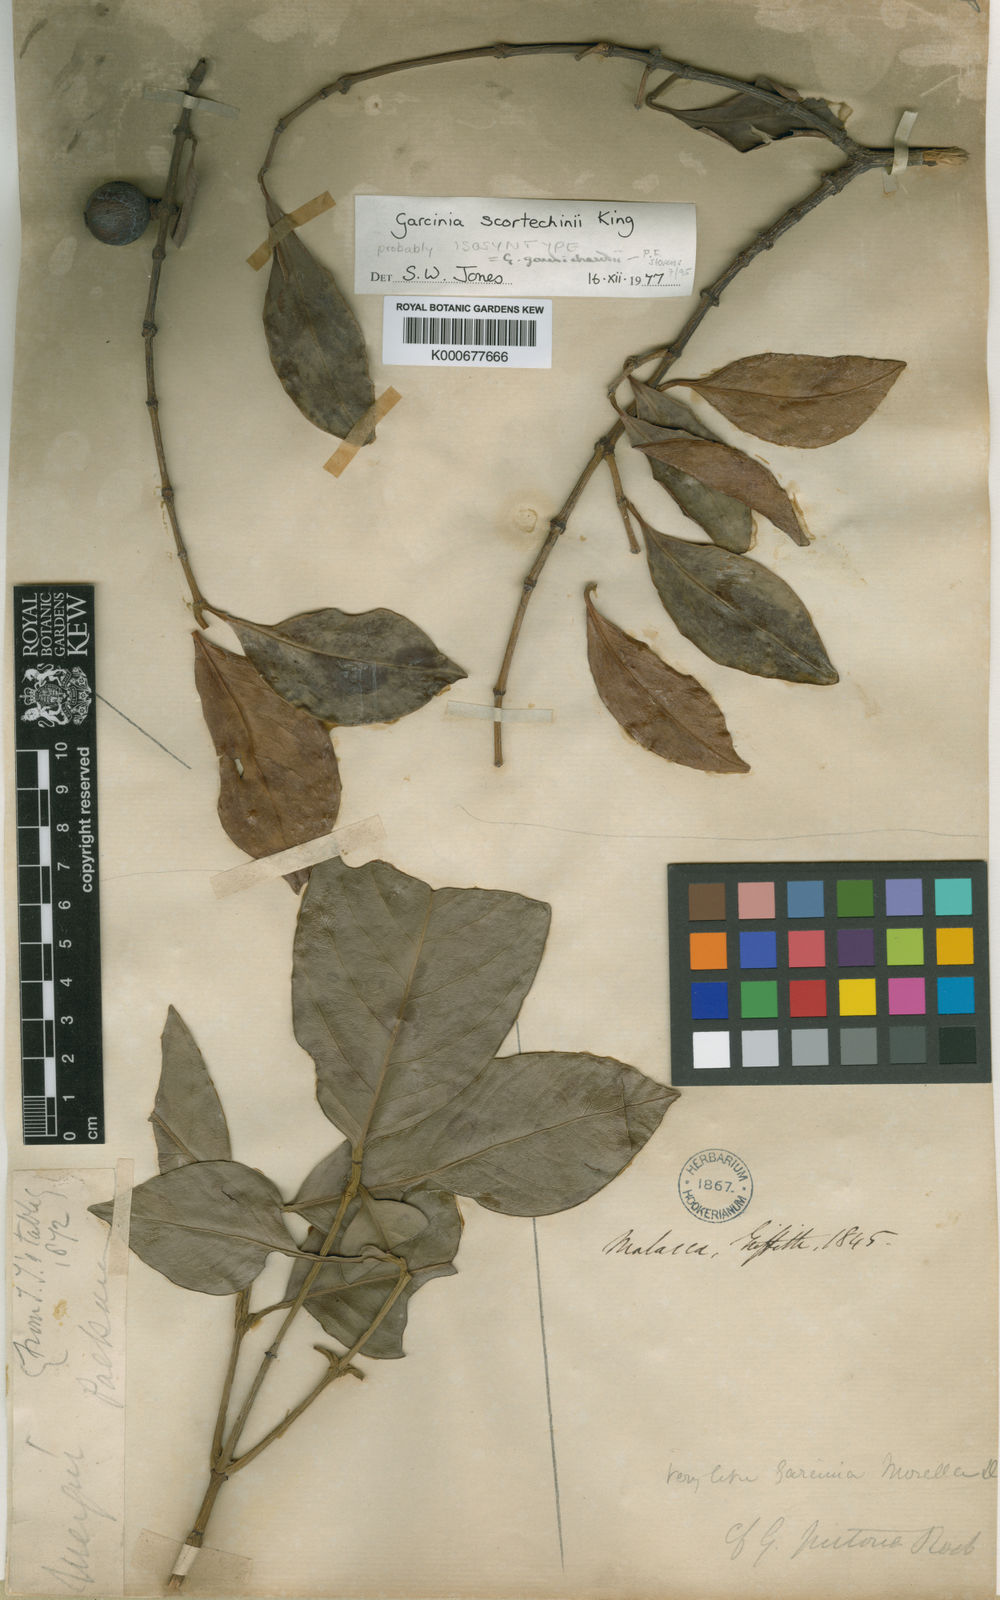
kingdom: Plantae
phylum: Tracheophyta
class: Magnoliopsida
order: Malpighiales
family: Clusiaceae
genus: Garcinia
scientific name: Garcinia gaudichaudii
